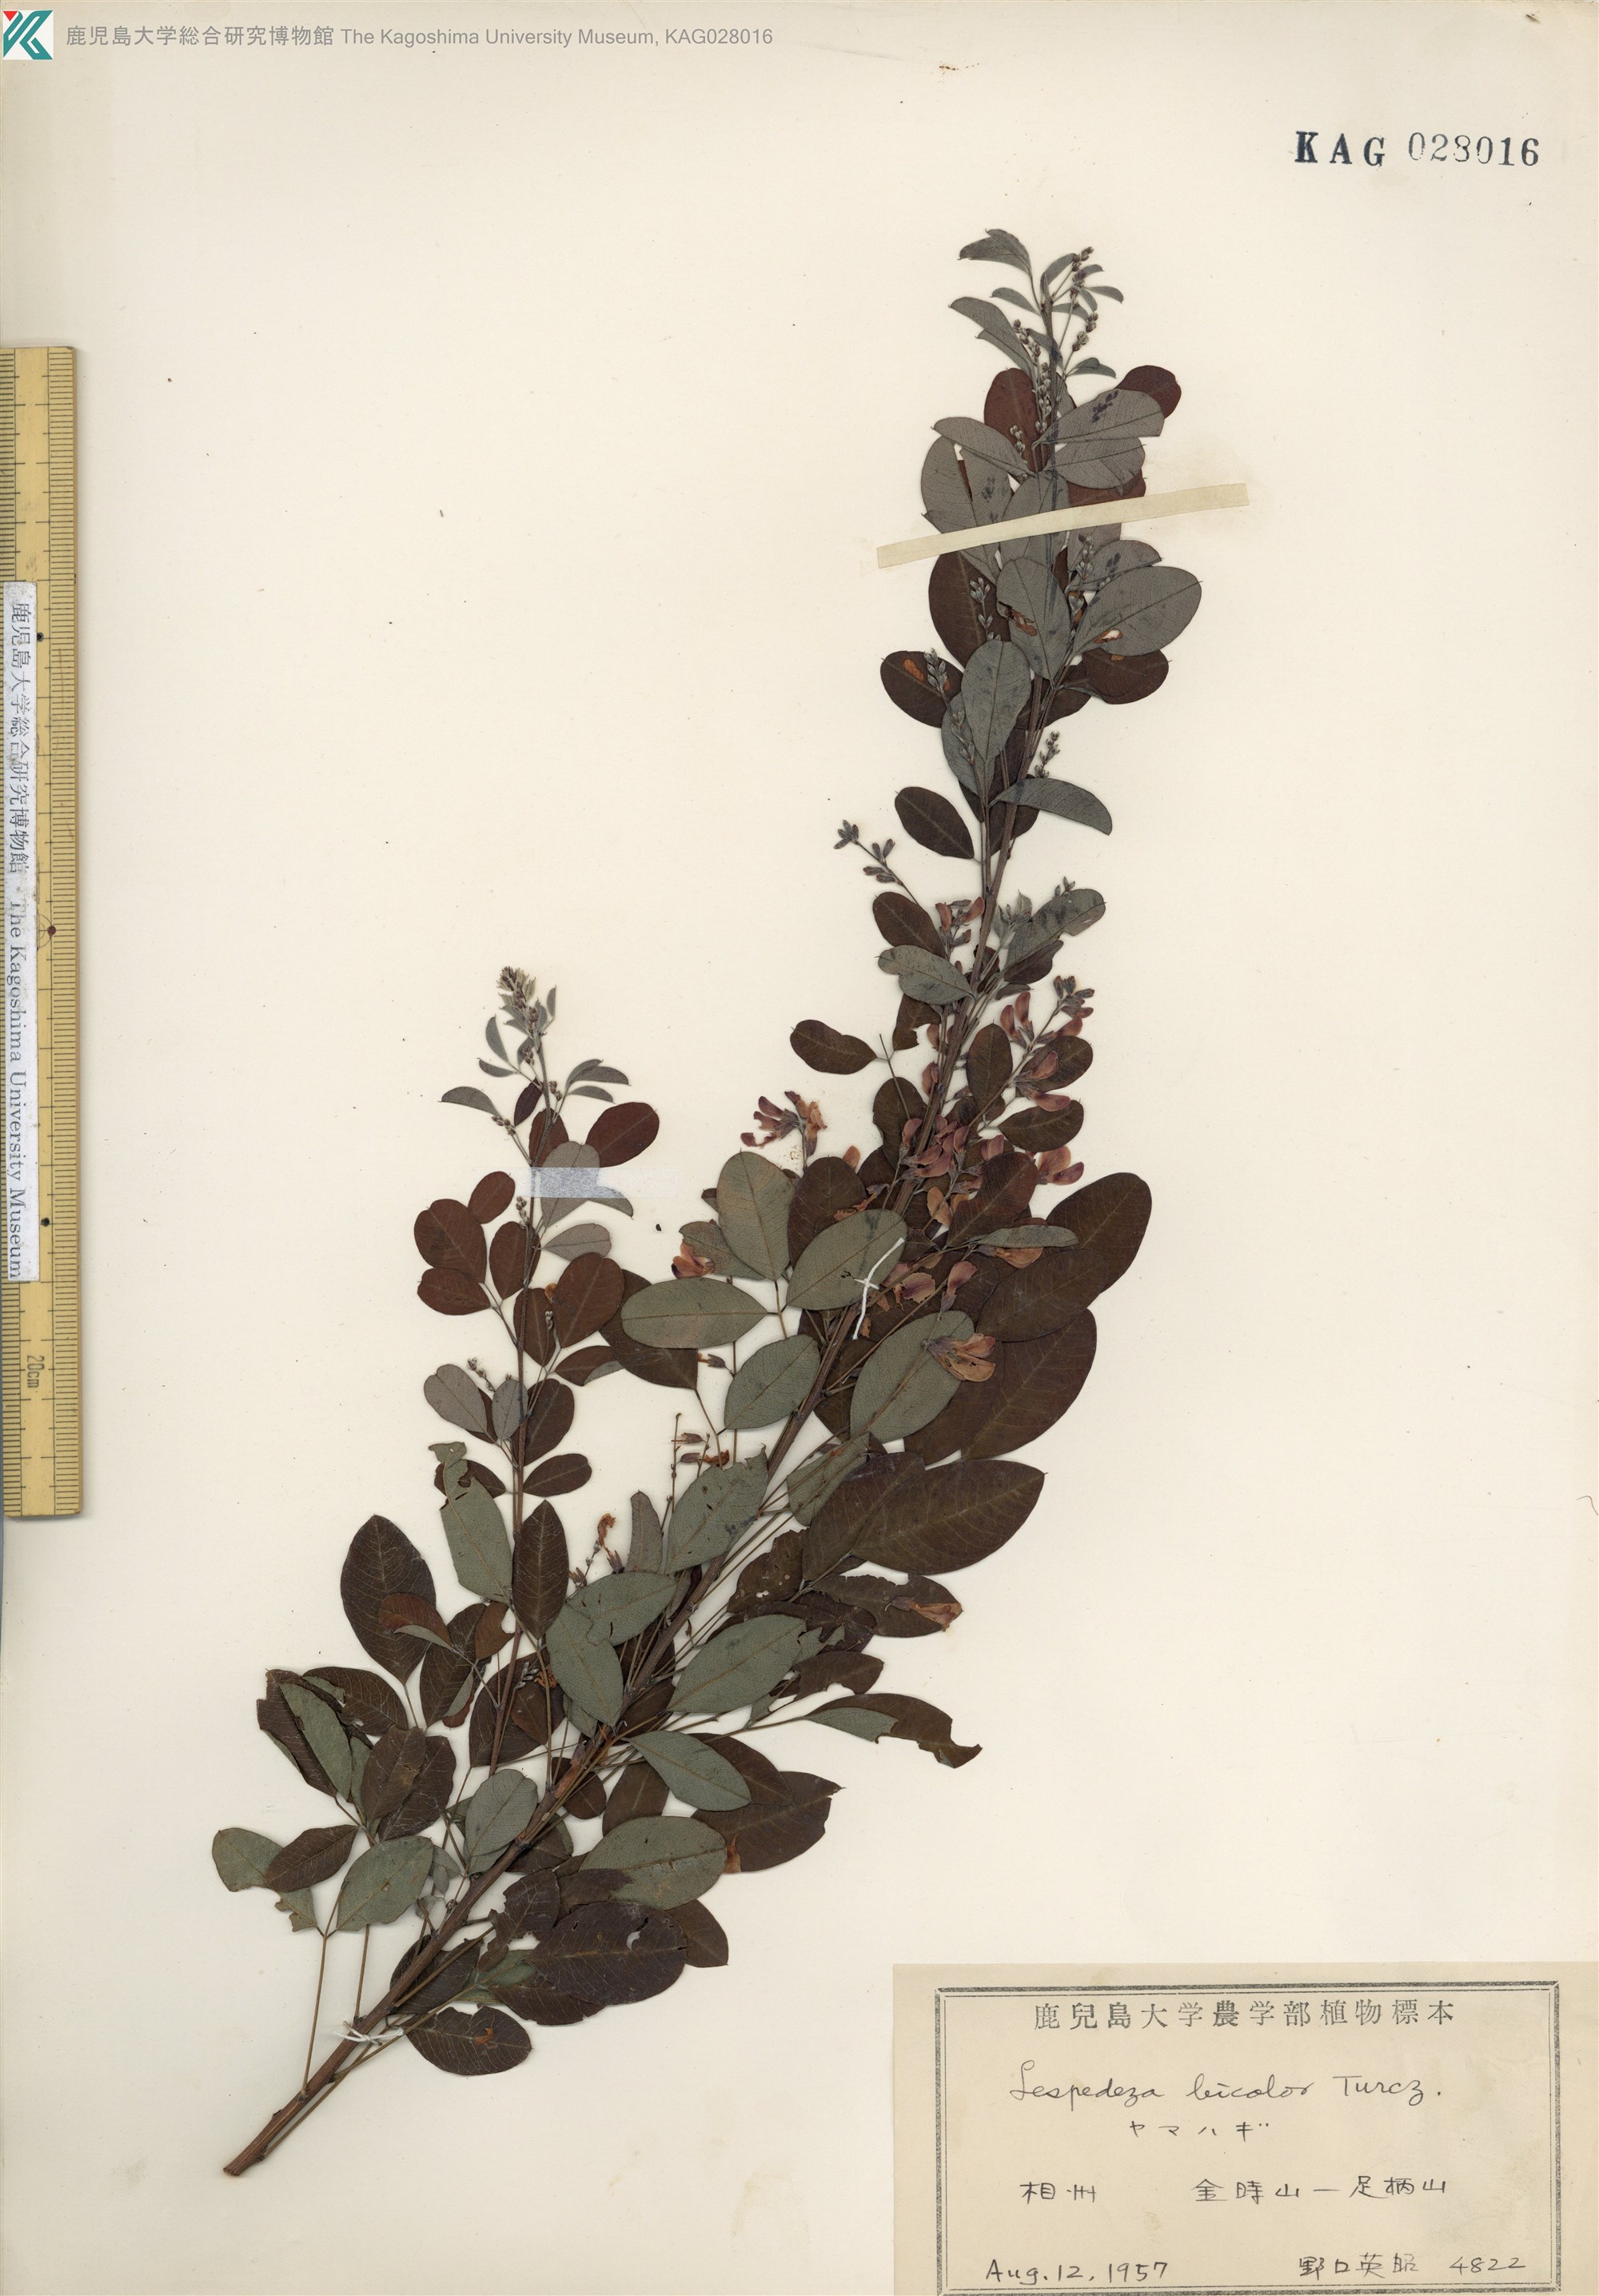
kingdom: Plantae
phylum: Tracheophyta
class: Magnoliopsida
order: Fabales
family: Fabaceae
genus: Lespedeza
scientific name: Lespedeza bicolor
